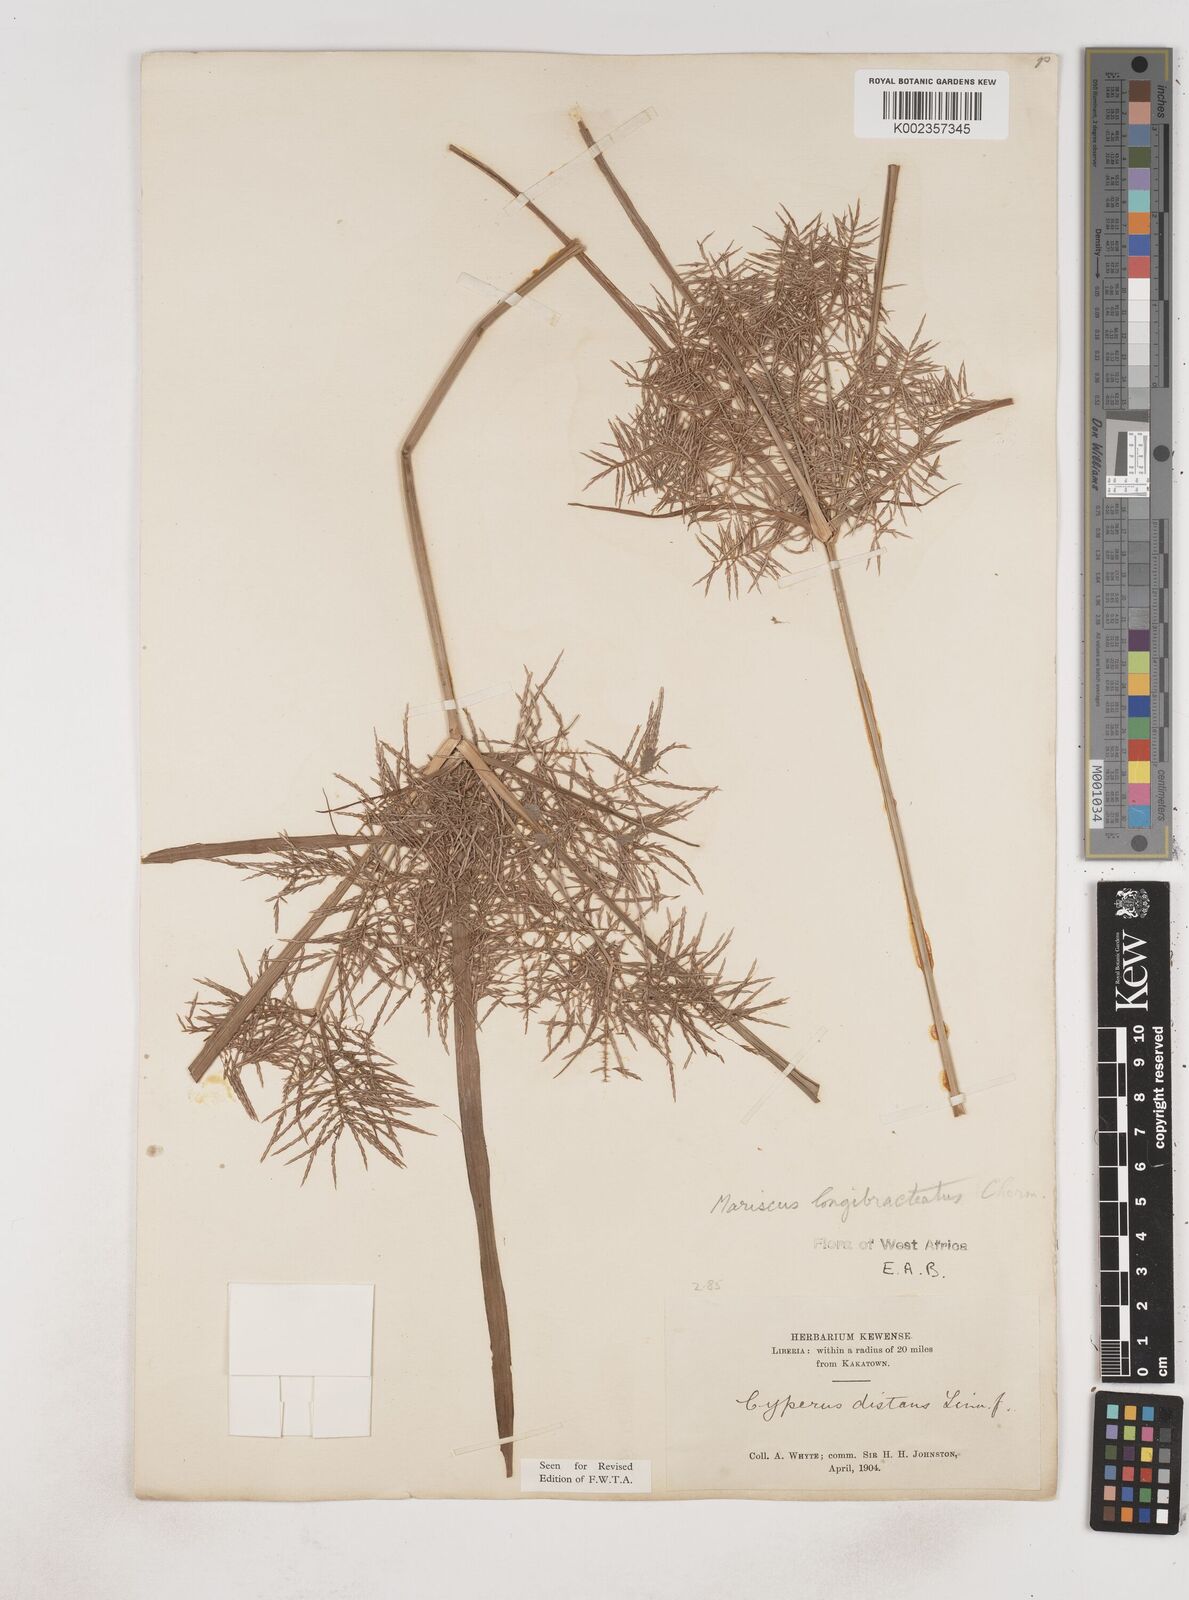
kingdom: Plantae
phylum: Tracheophyta
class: Liliopsida
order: Poales
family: Cyperaceae
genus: Cyperus
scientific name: Cyperus distans
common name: Slender cyperus
